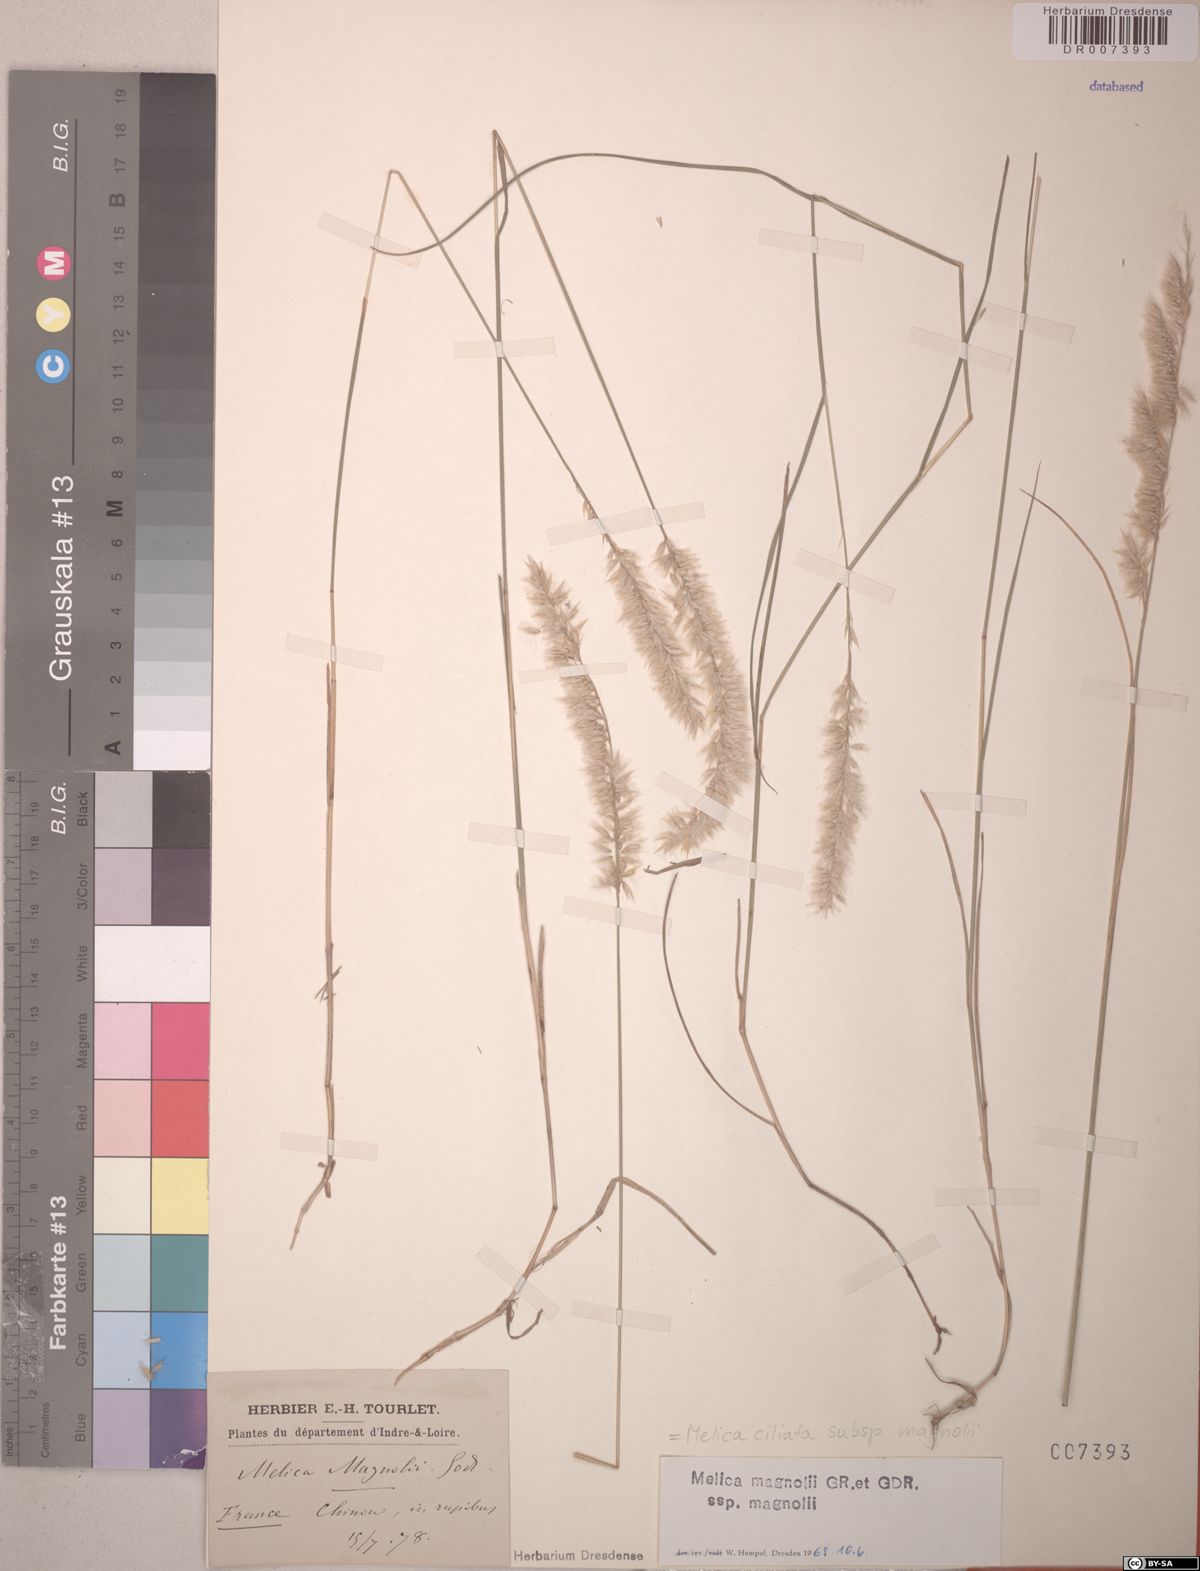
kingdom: Plantae
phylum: Tracheophyta
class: Liliopsida
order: Poales
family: Poaceae
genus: Melica
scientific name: Melica ciliata
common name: Hairy melicgrass
